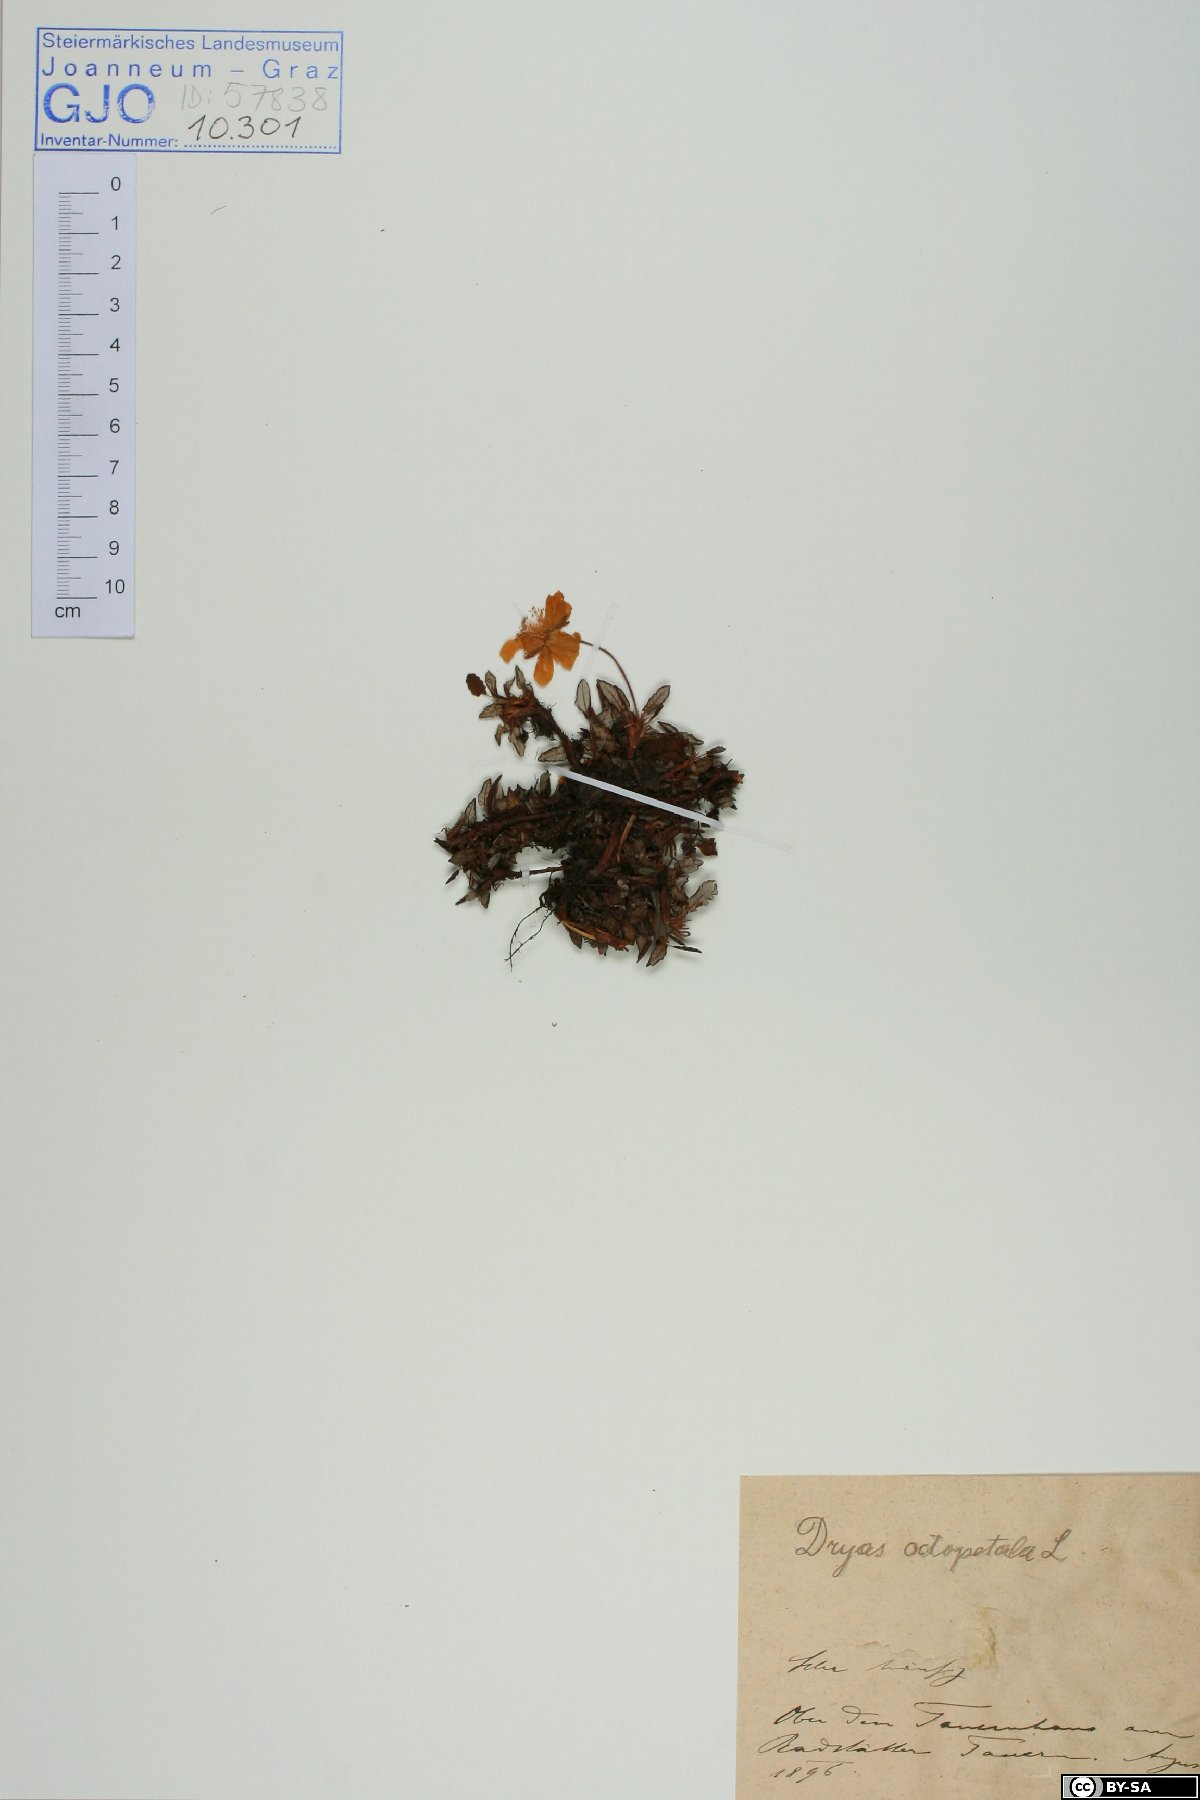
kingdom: Plantae
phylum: Tracheophyta
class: Magnoliopsida
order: Rosales
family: Rosaceae
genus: Dryas
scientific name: Dryas octopetala
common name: Eight-petal mountain-avens
